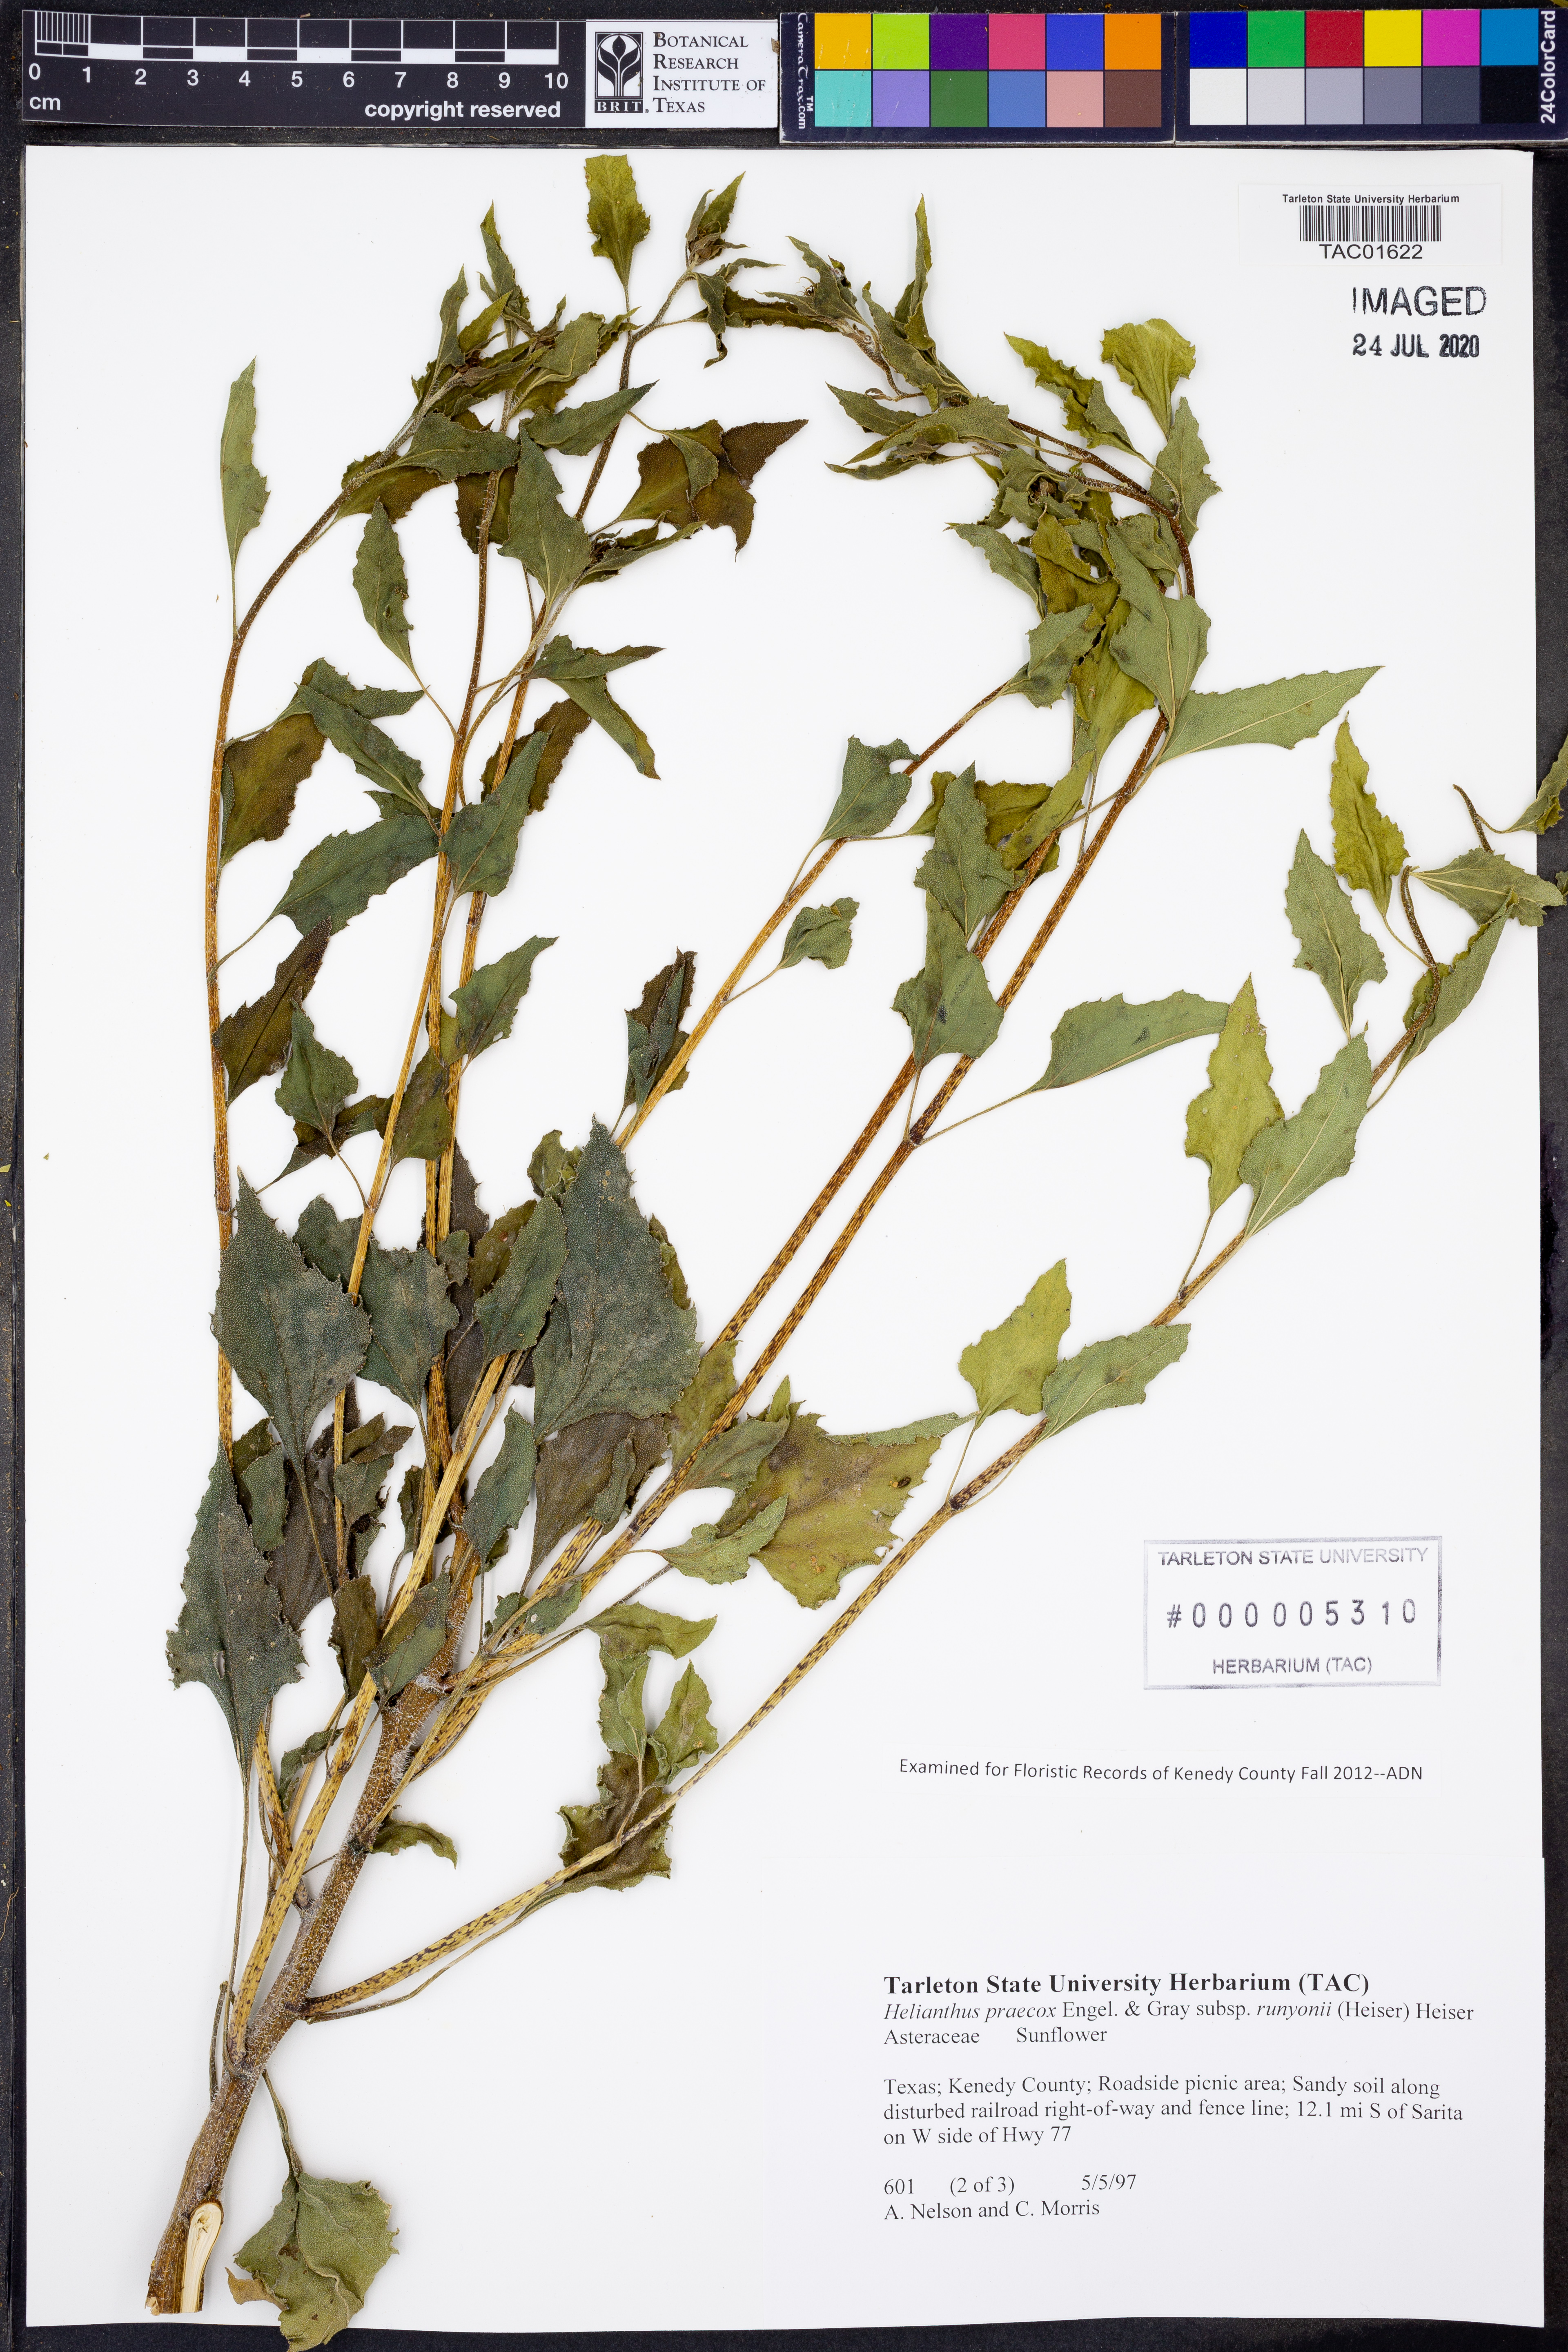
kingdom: Plantae
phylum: Tracheophyta
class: Magnoliopsida
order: Asterales
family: Asteraceae
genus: Helianthus
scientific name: Helianthus praecox
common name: Texas sunflower
